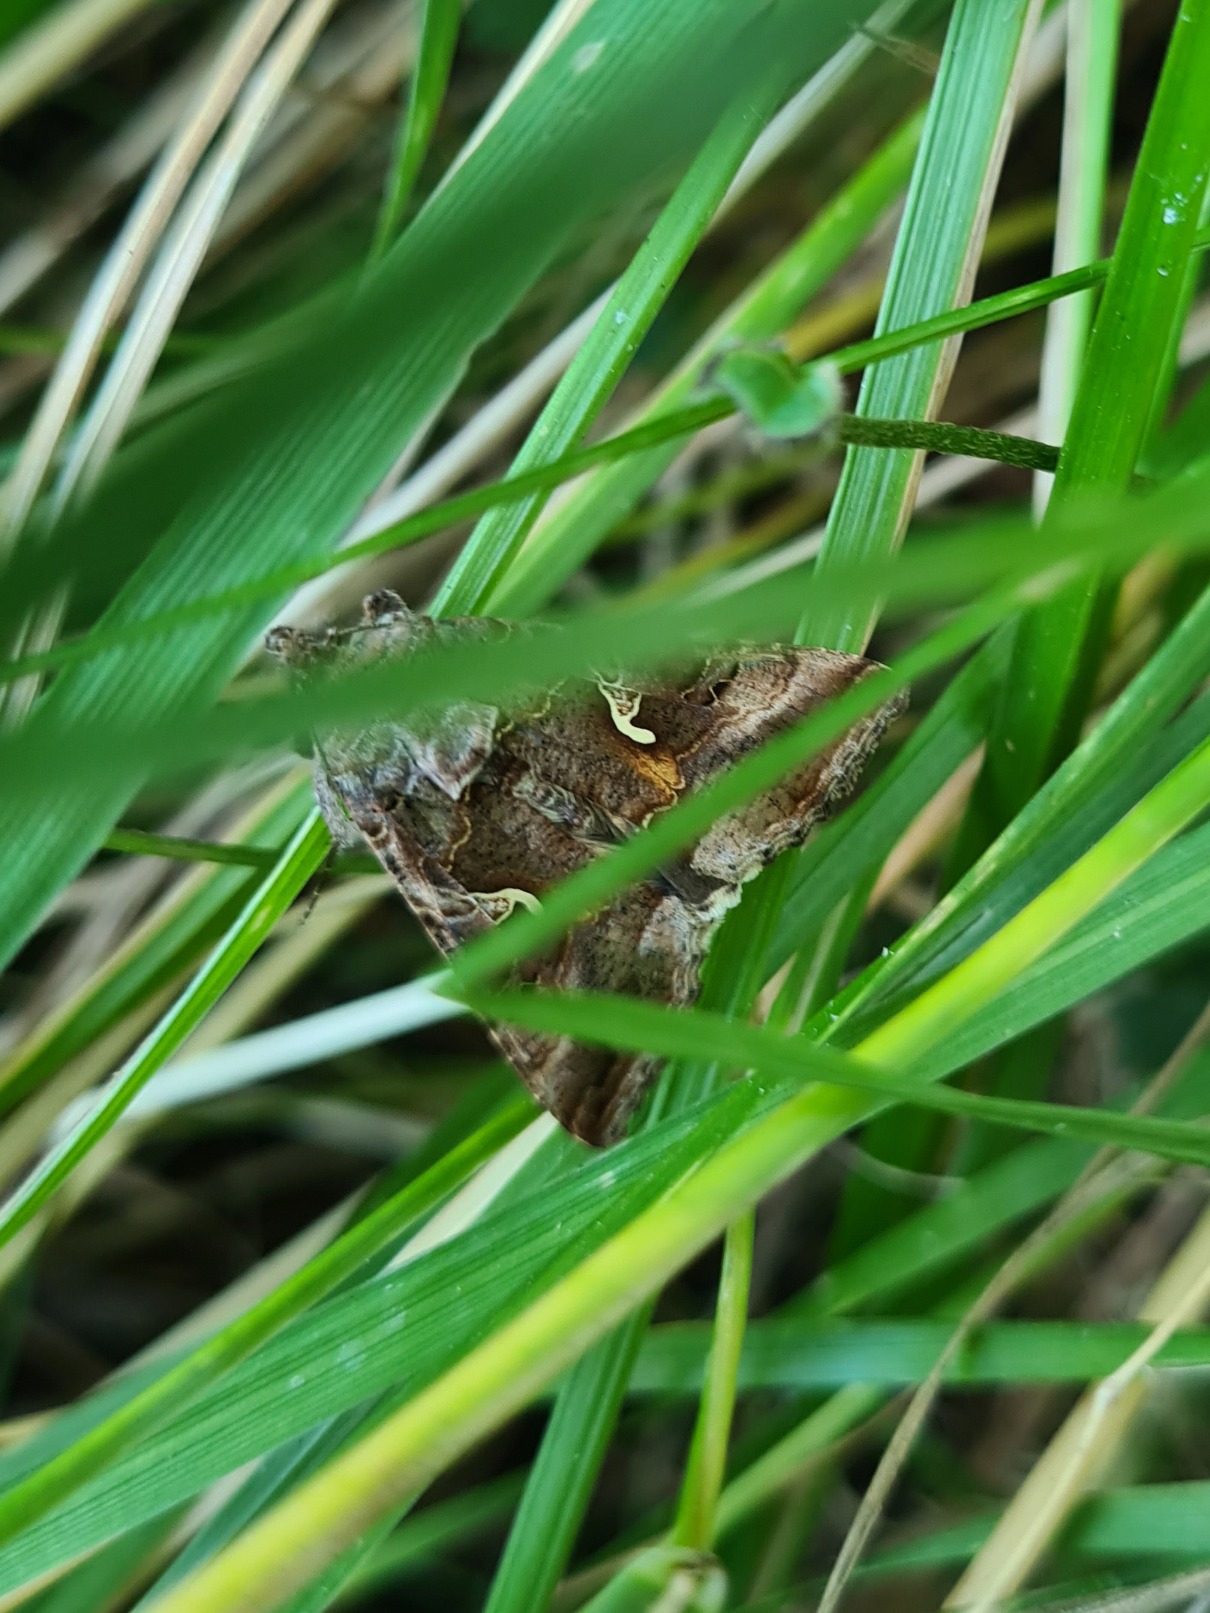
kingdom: Animalia
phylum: Arthropoda
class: Insecta
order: Lepidoptera
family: Noctuidae
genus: Autographa
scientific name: Autographa gamma
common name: Gammaugle
